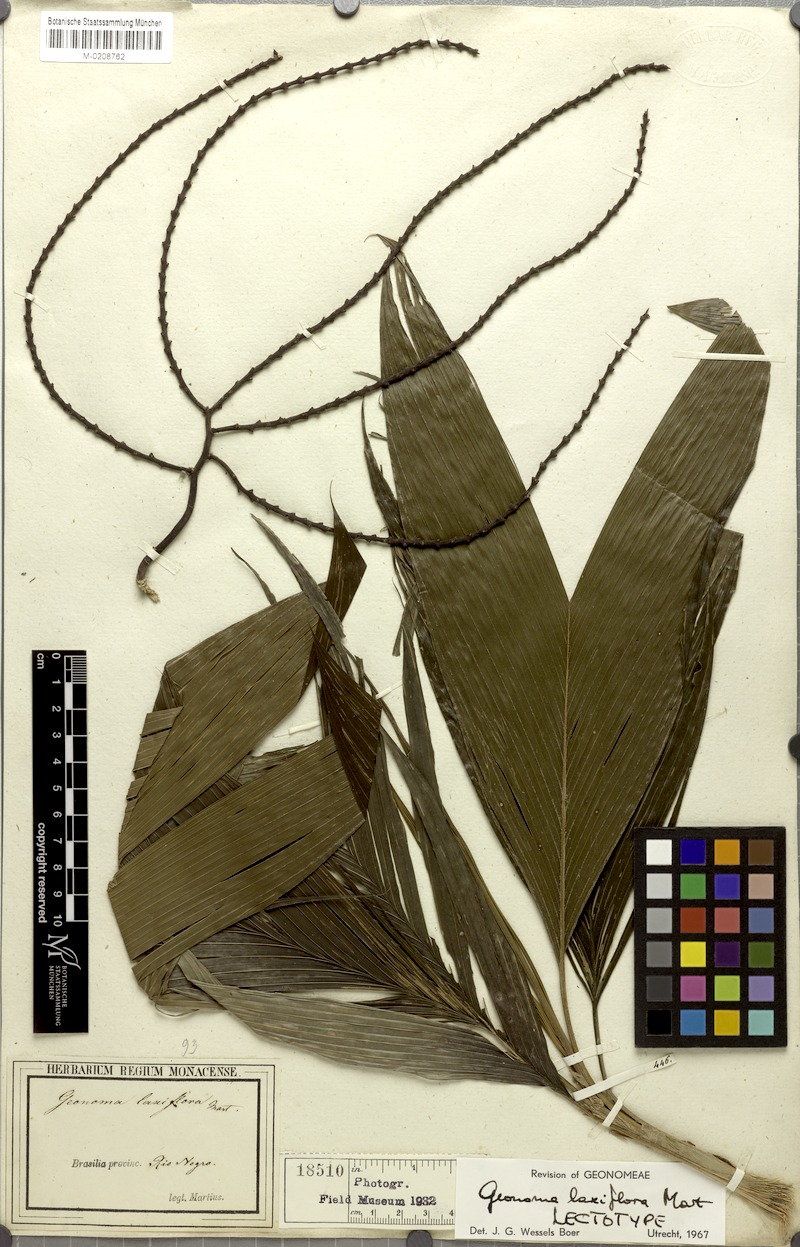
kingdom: Plantae
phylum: Tracheophyta
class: Liliopsida
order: Arecales
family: Arecaceae
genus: Geonoma
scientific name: Geonoma laxiflora
